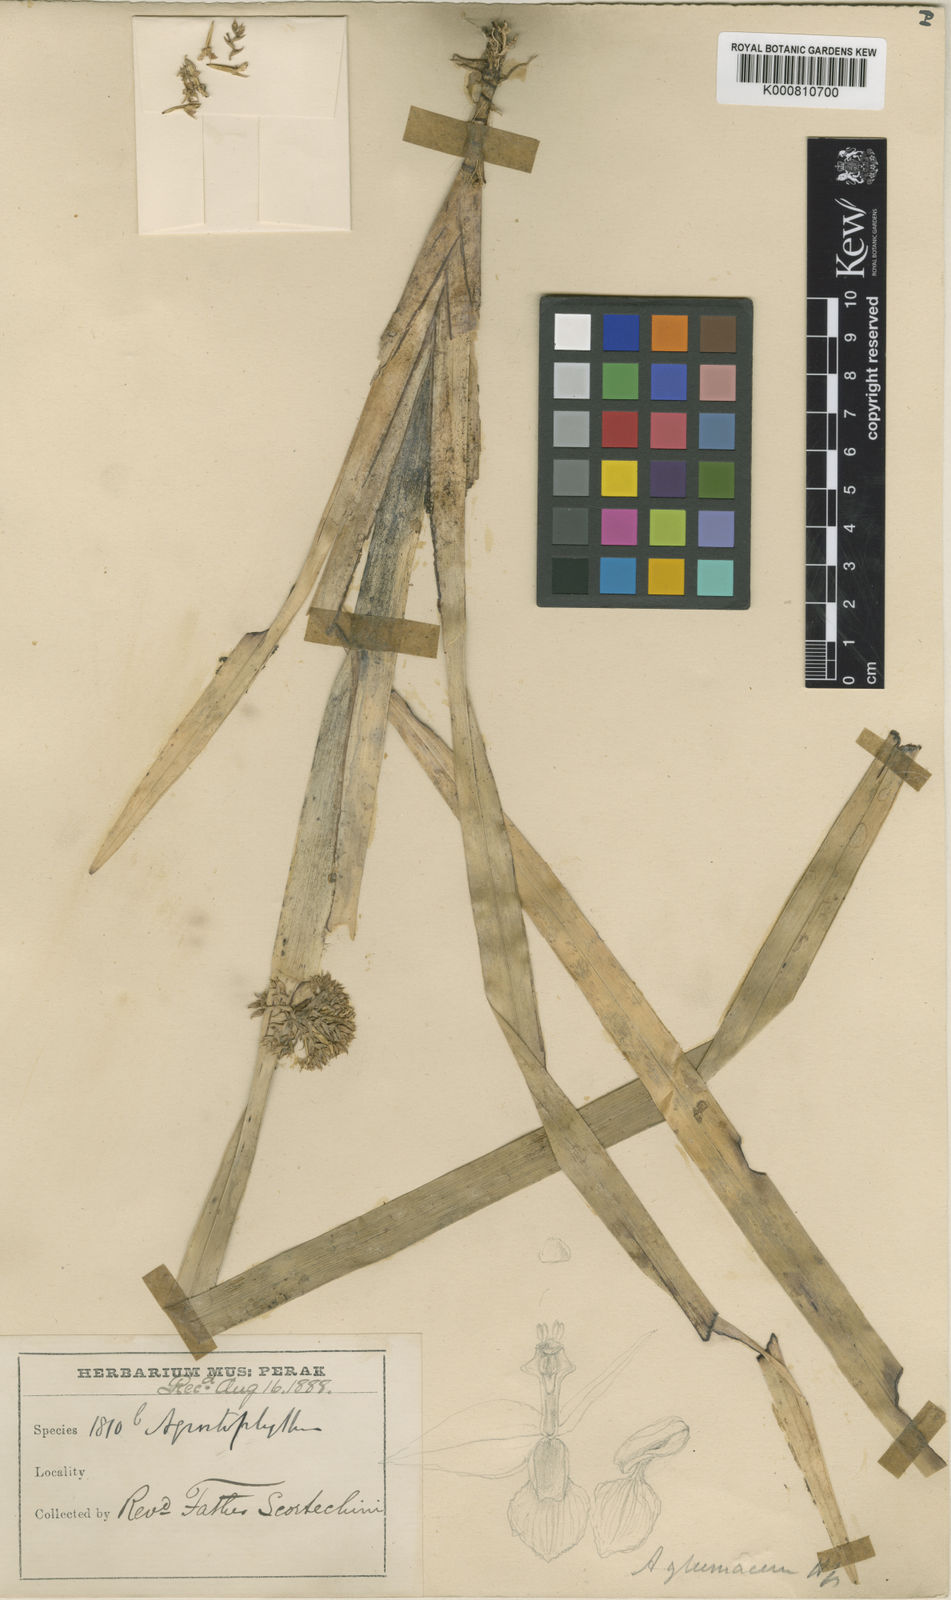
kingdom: Plantae
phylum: Tracheophyta
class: Liliopsida
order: Asparagales
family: Orchidaceae
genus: Agrostophyllum
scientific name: Agrostophyllum glumaceum
